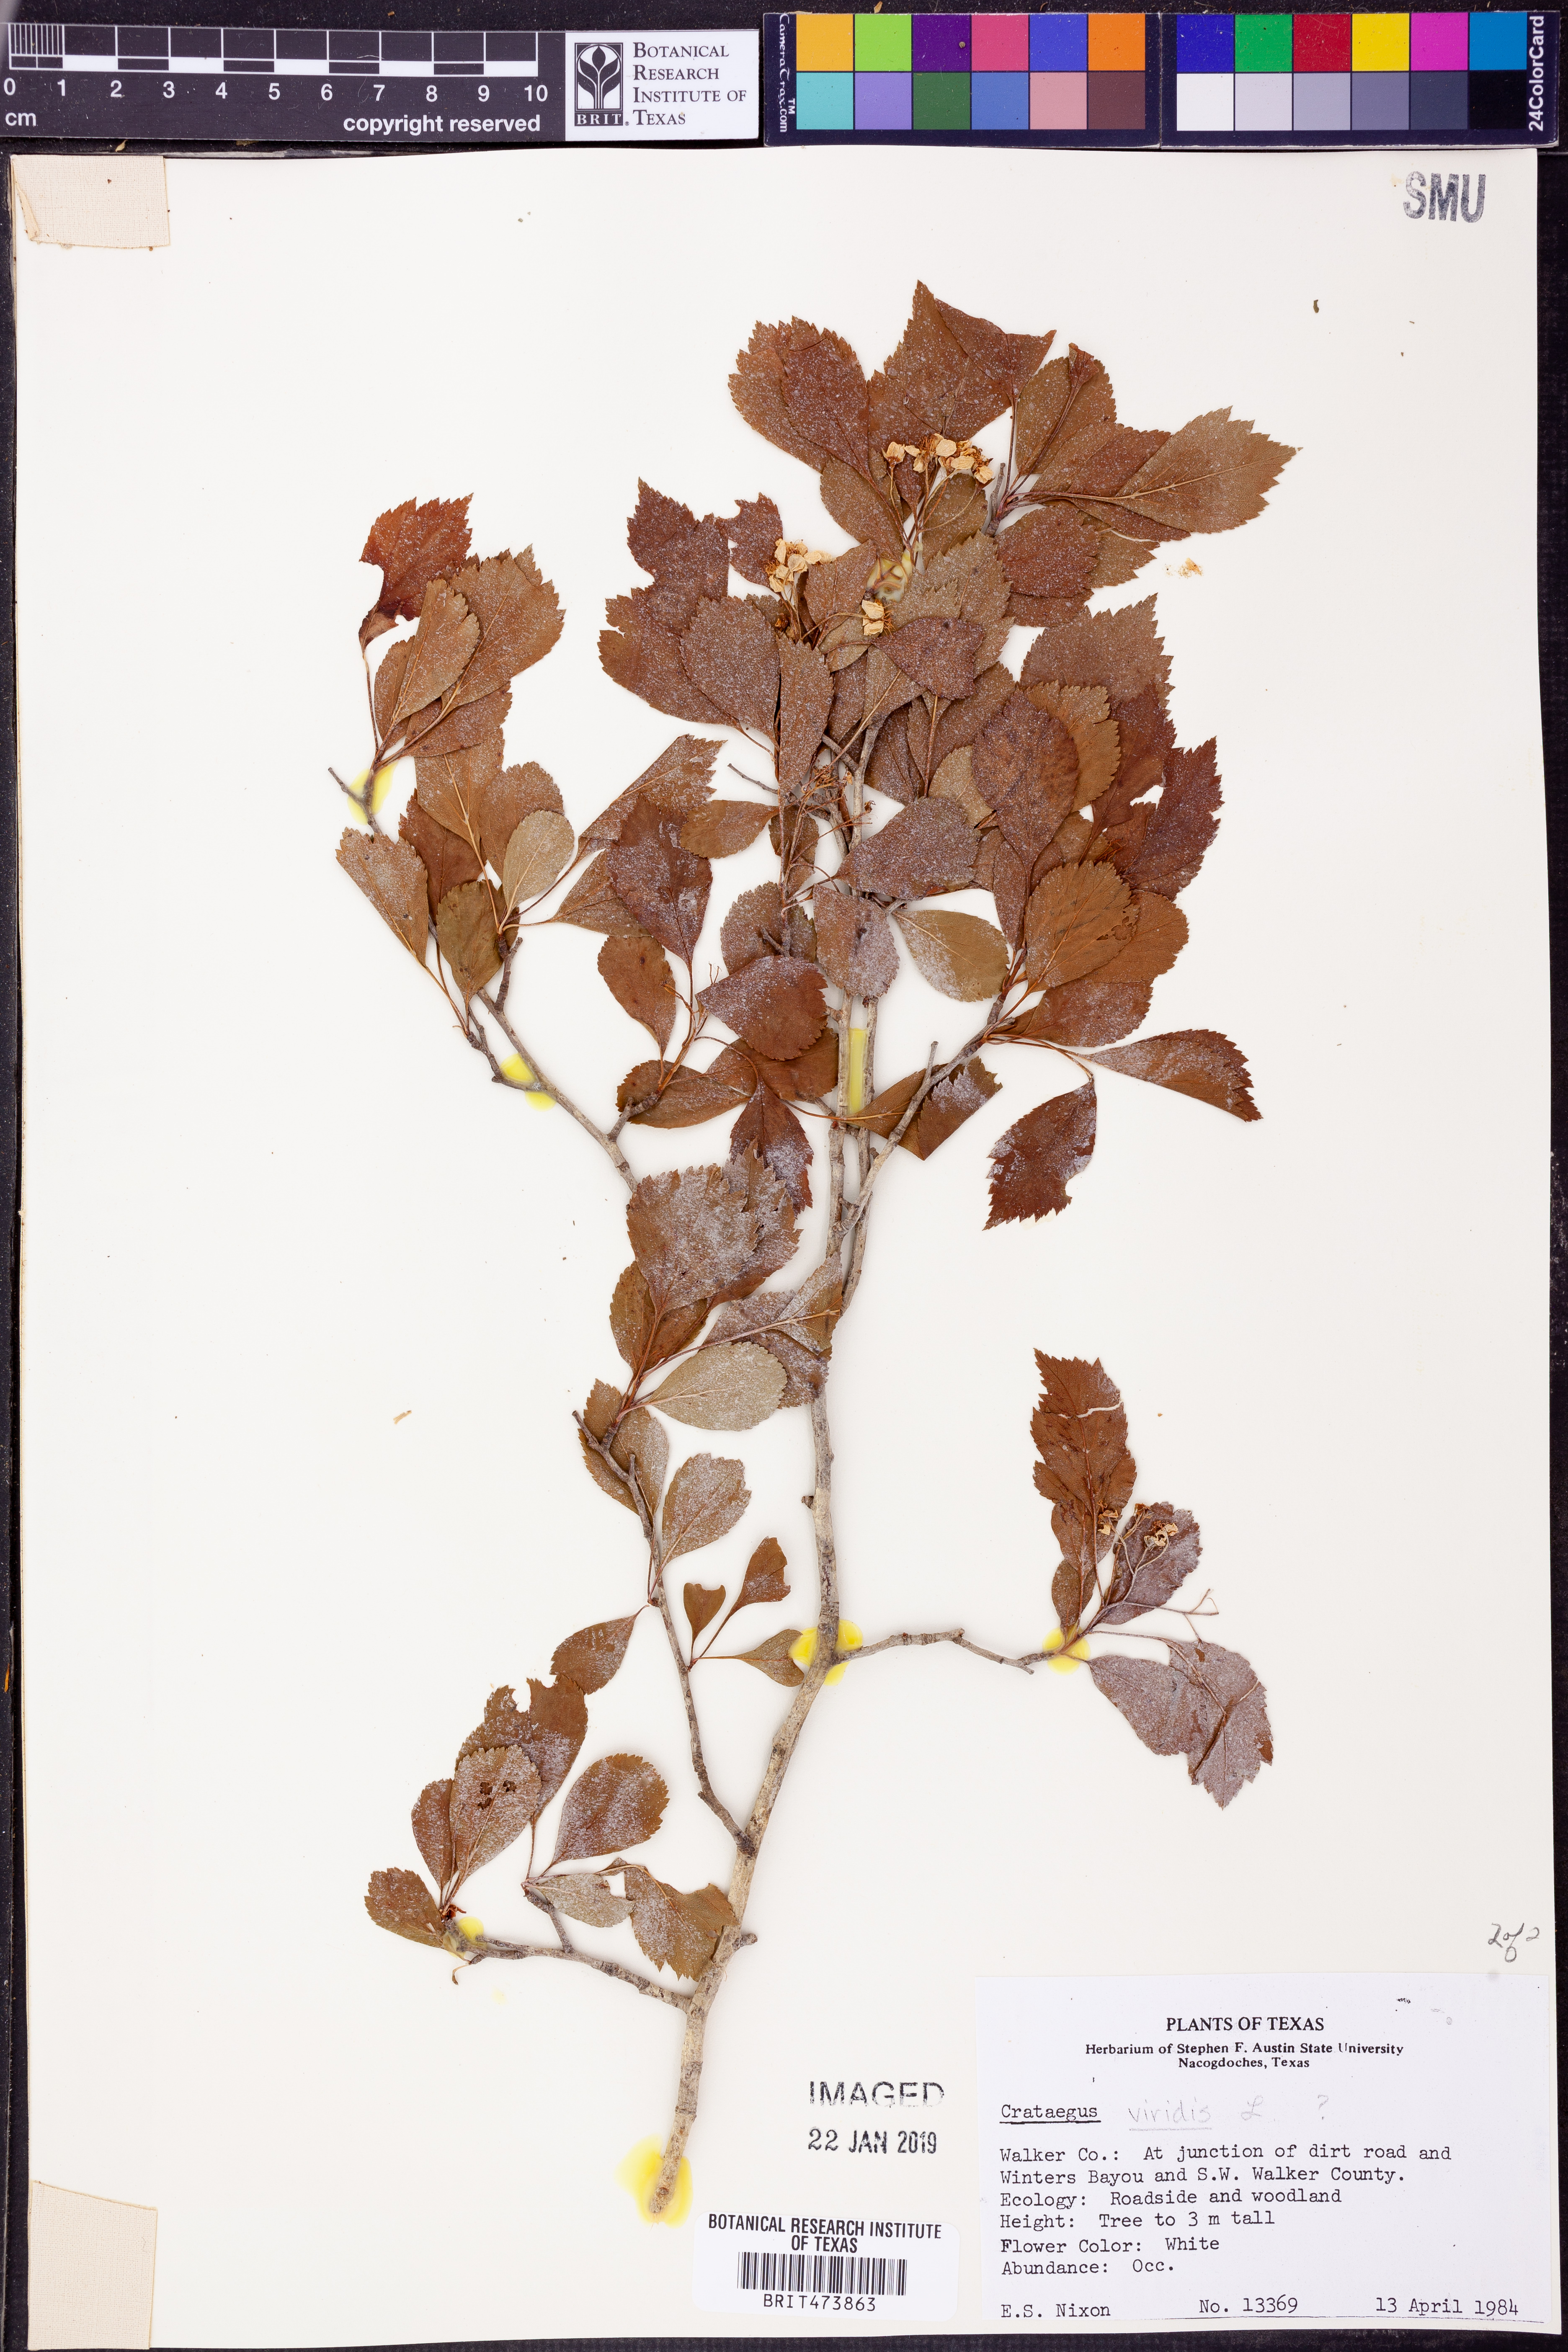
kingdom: Plantae
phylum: Tracheophyta
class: Magnoliopsida
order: Rosales
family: Rosaceae
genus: Crataegus
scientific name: Crataegus viridis
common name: Southernthorn
